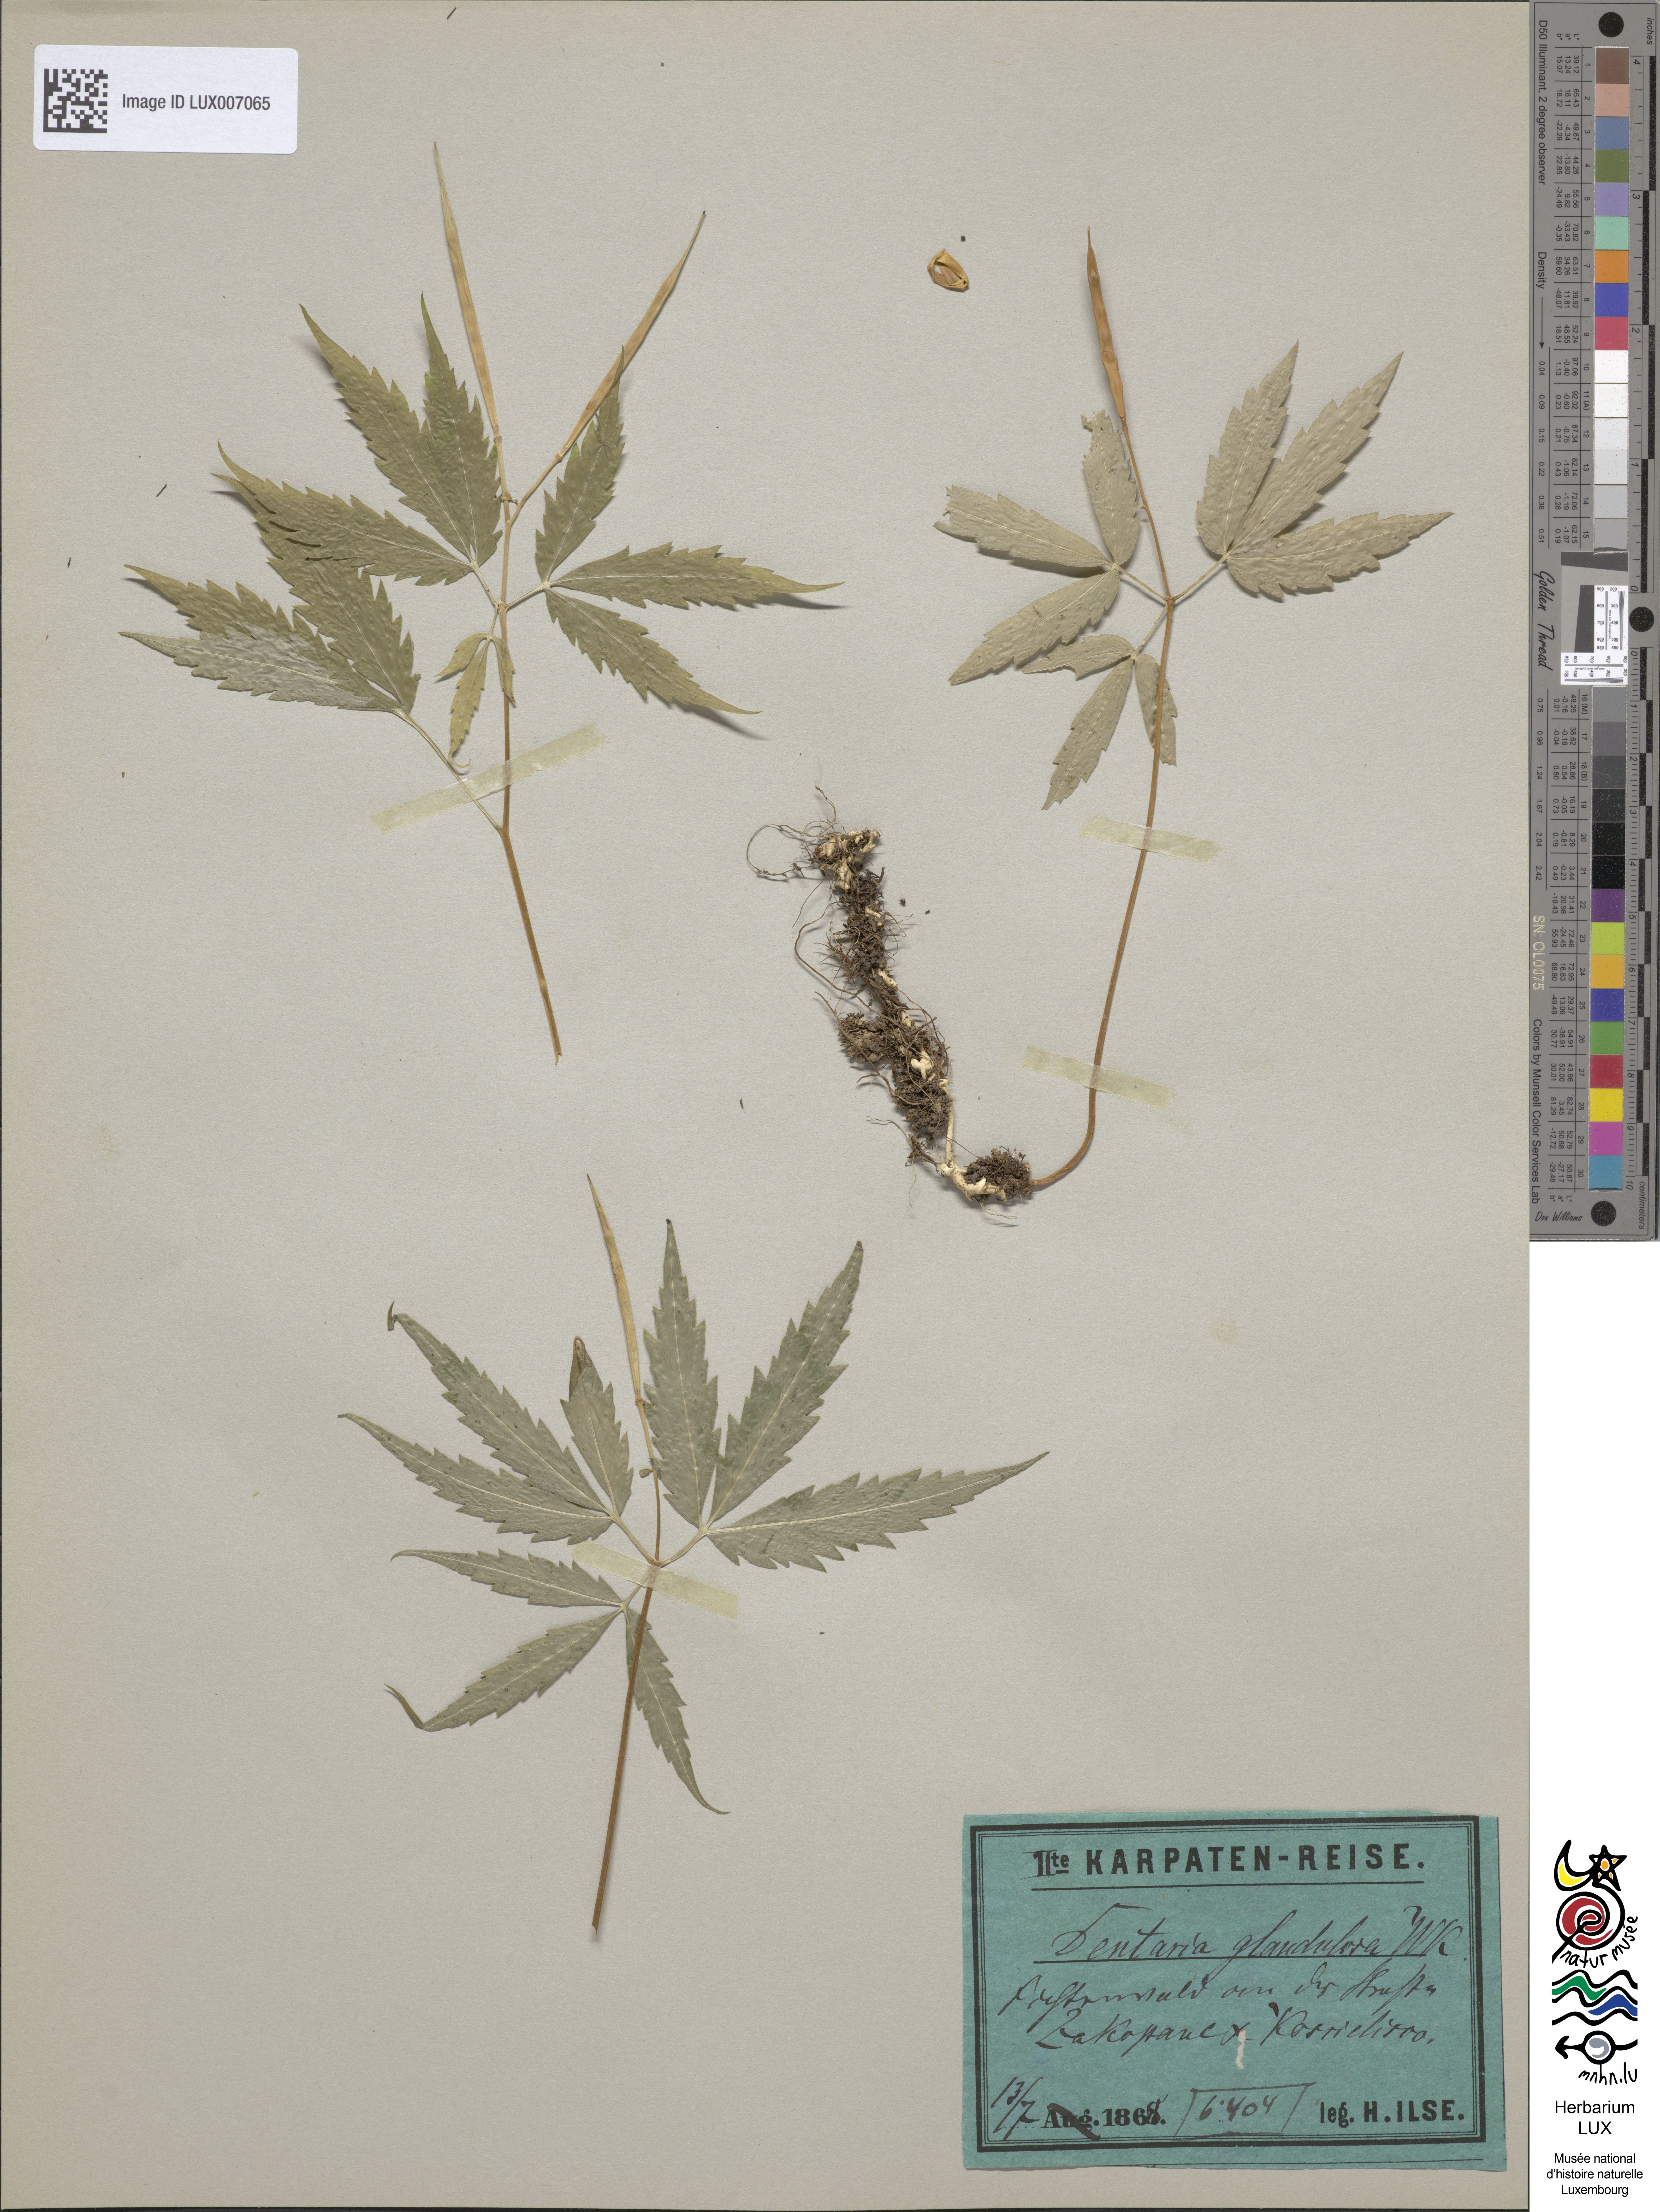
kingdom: Plantae
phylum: Tracheophyta
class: Magnoliopsida
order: Brassicales
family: Brassicaceae
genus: Cardamine
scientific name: Cardamine glanduligera
